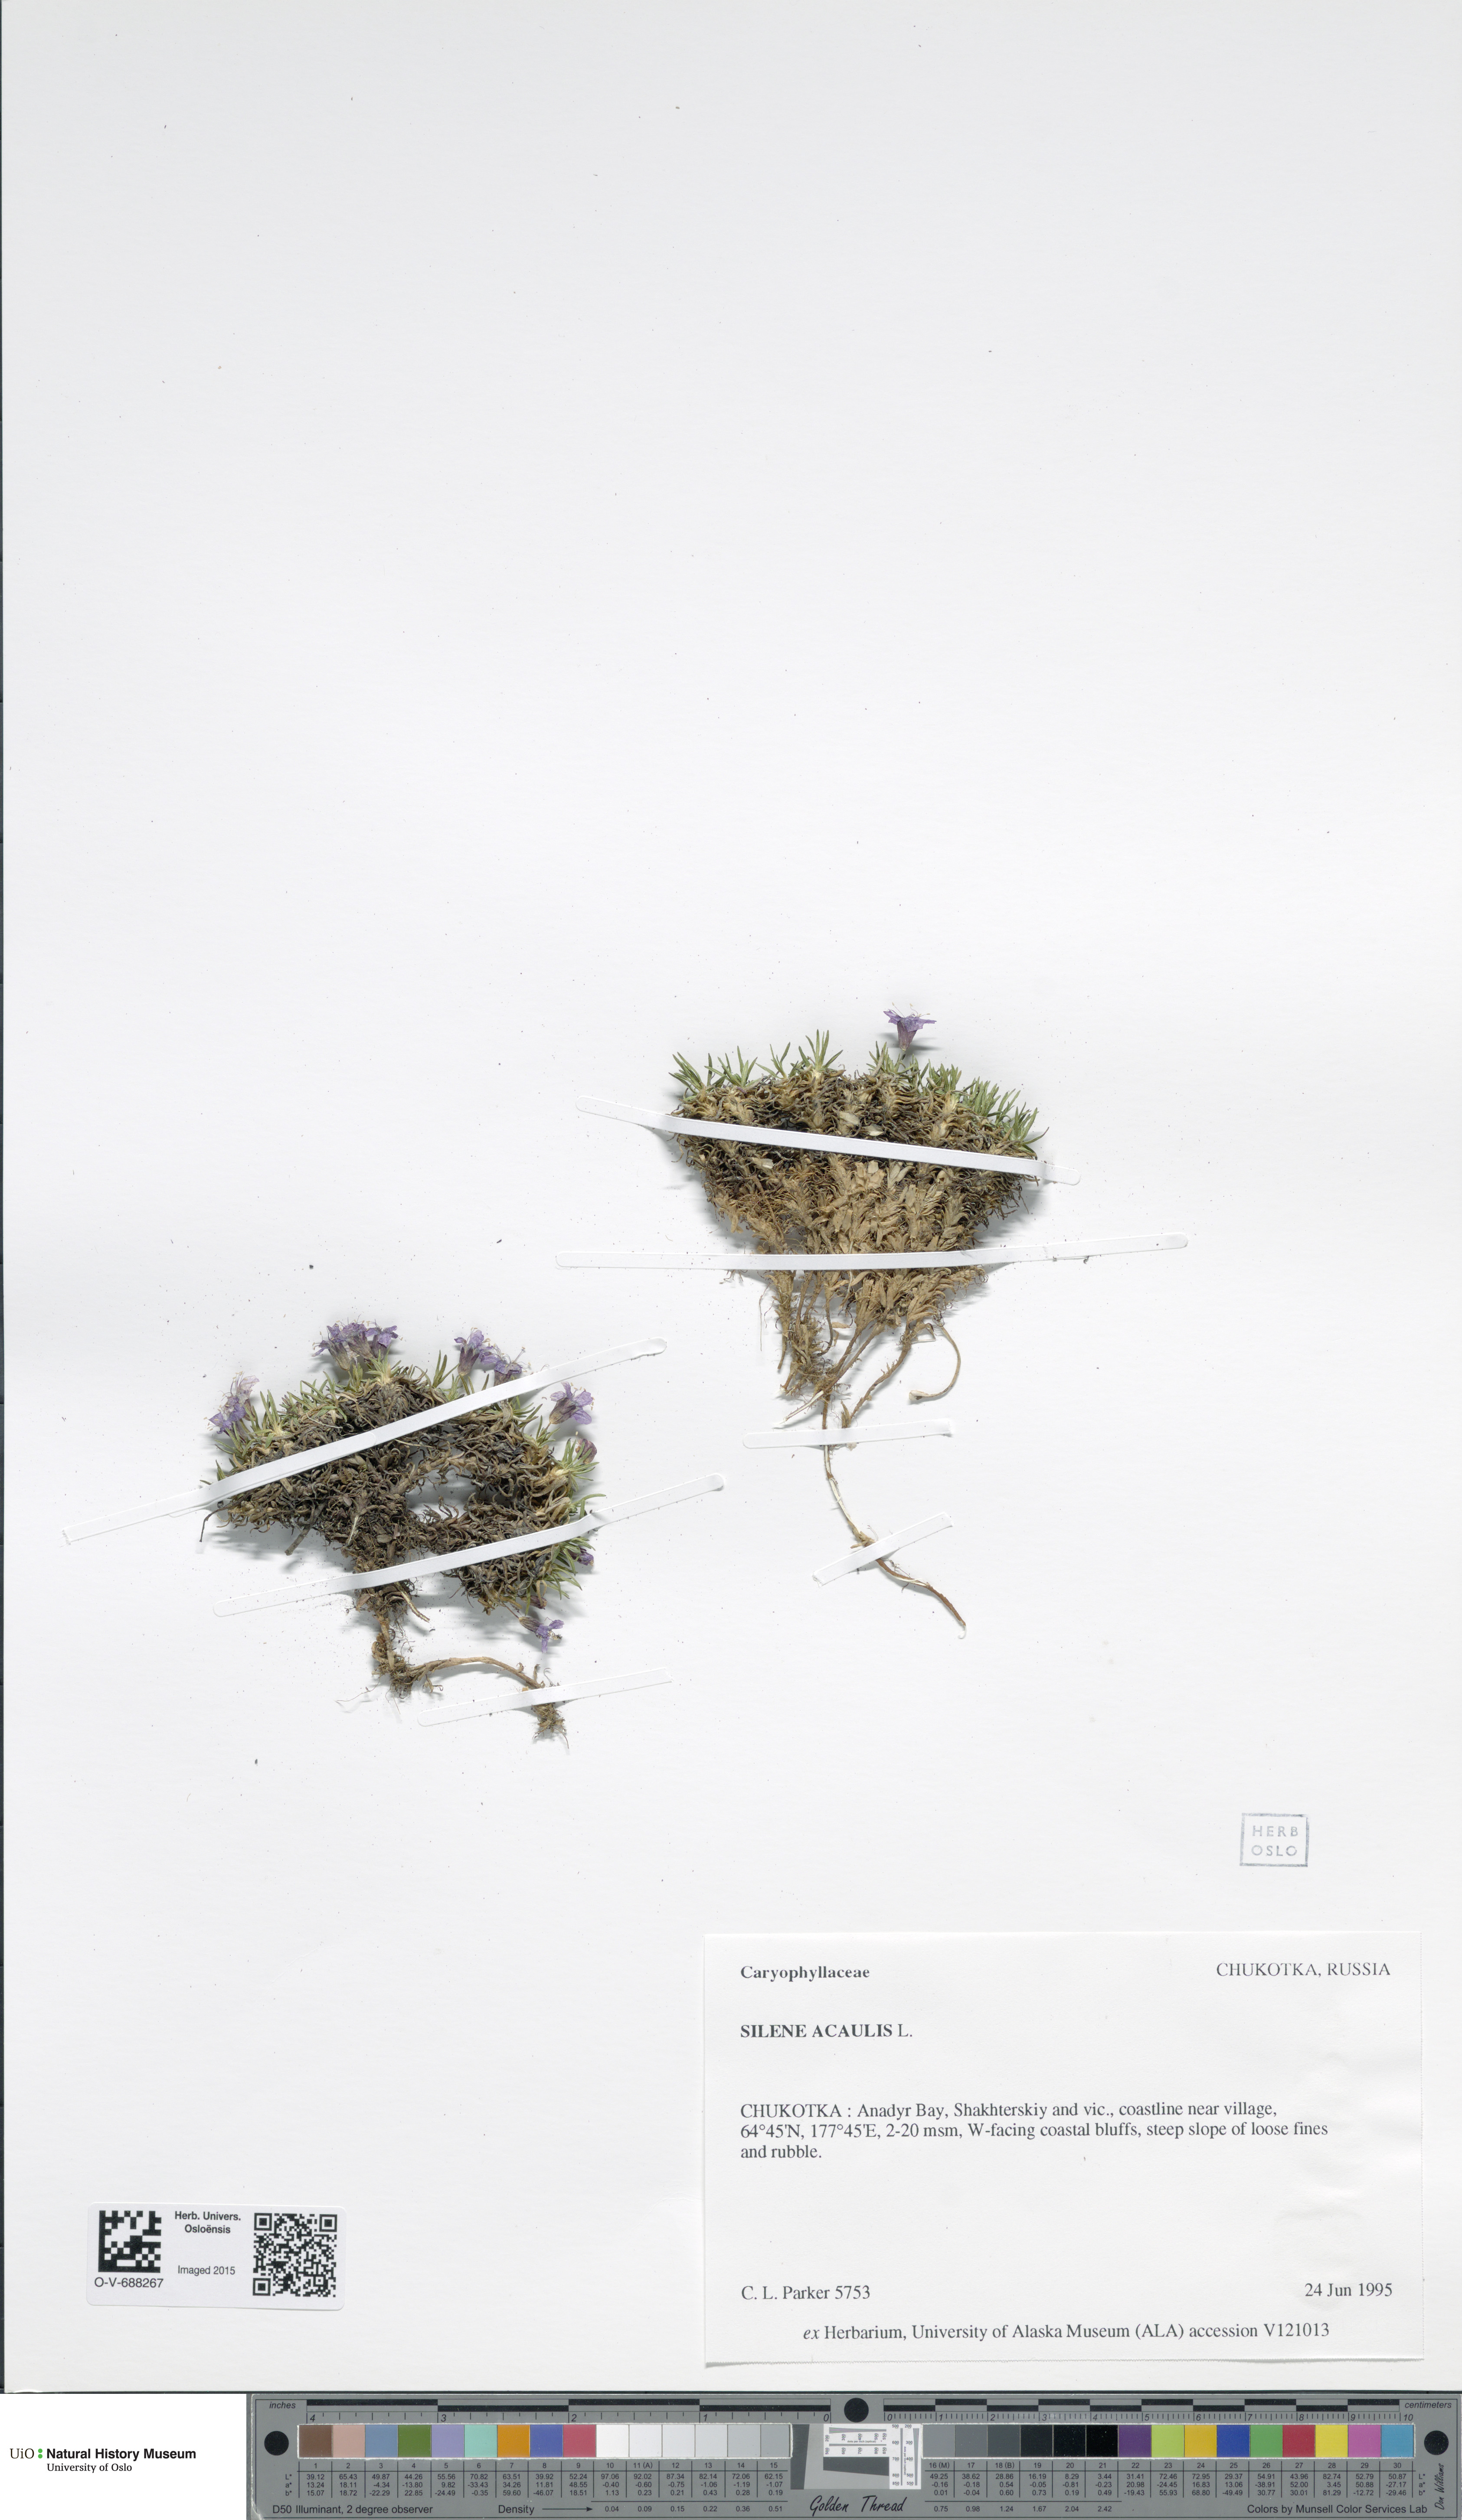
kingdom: Plantae
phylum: Tracheophyta
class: Magnoliopsida
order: Caryophyllales
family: Caryophyllaceae
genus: Silene
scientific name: Silene acaulis
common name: Moss campion
